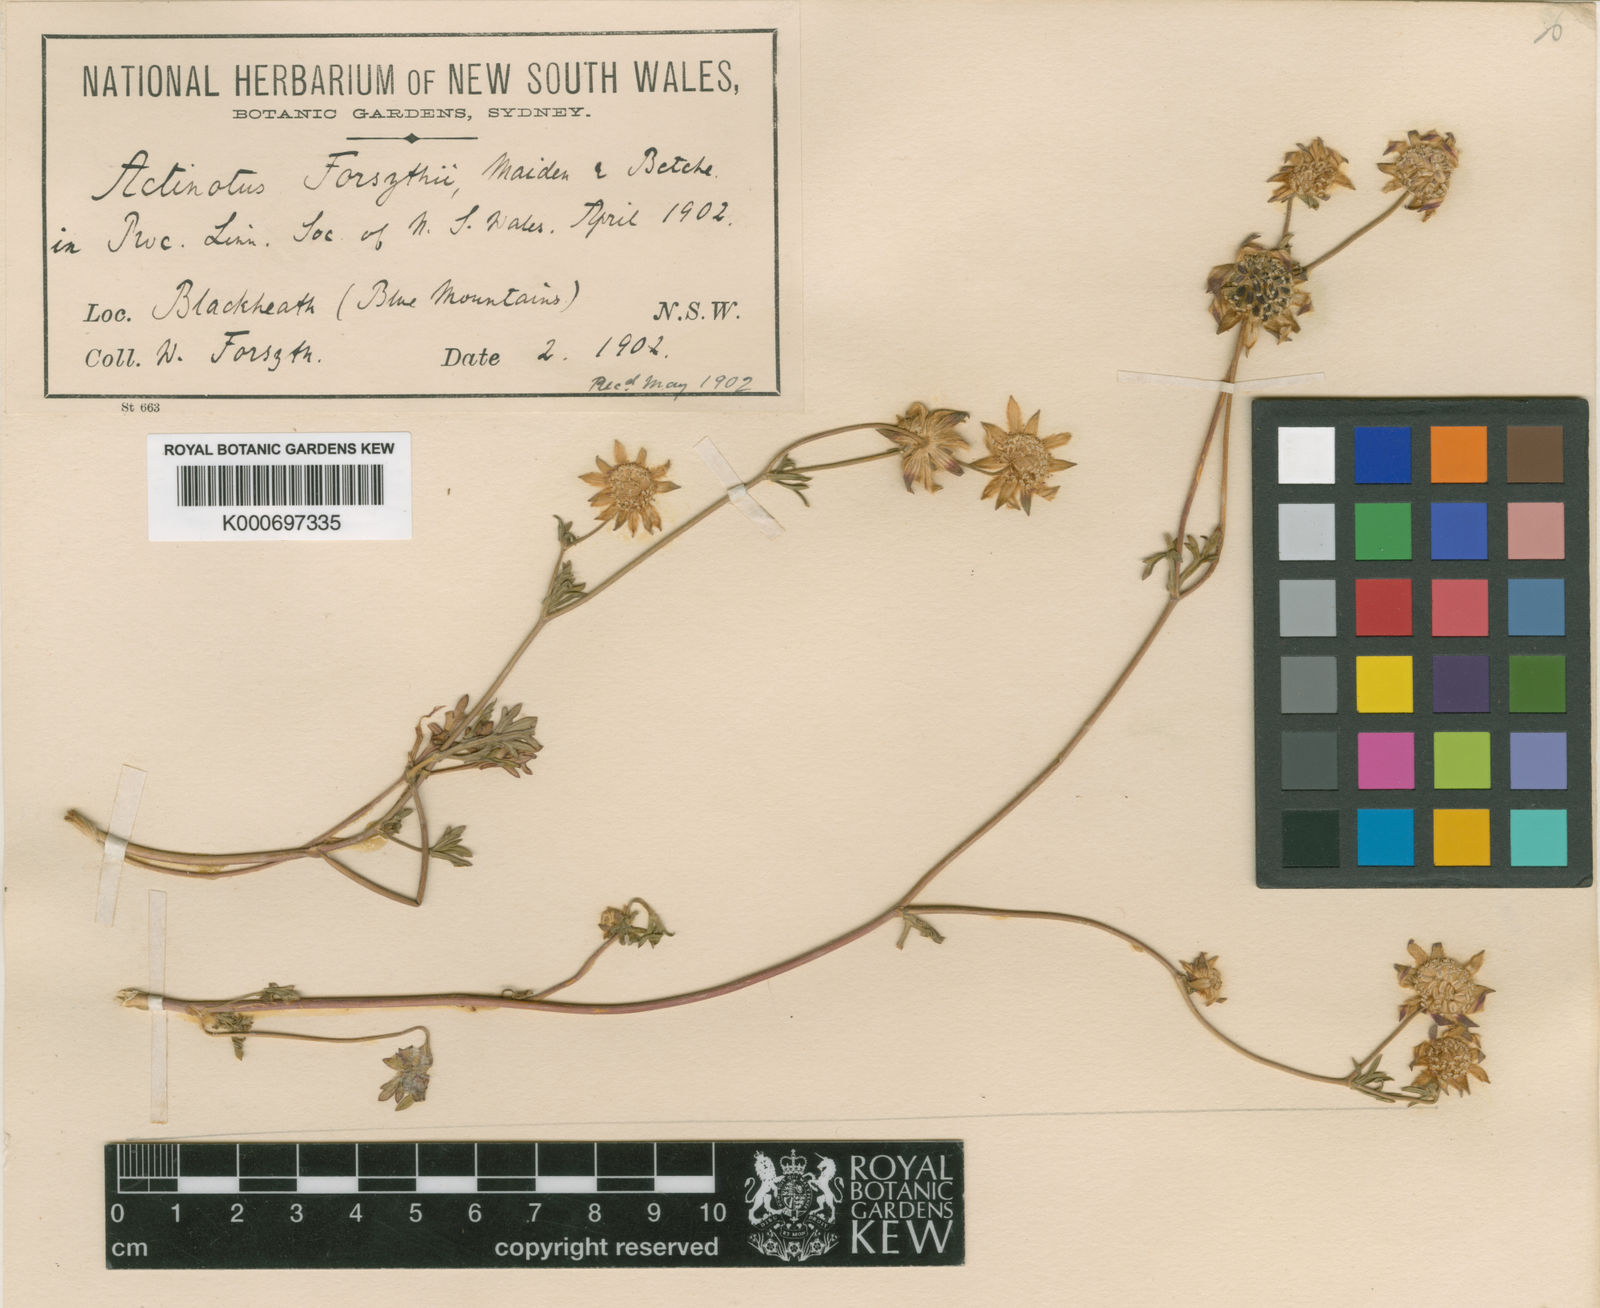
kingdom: Plantae
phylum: Tracheophyta
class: Magnoliopsida
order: Apiales
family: Apiaceae
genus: Actinotus
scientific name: Actinotus forsythii
